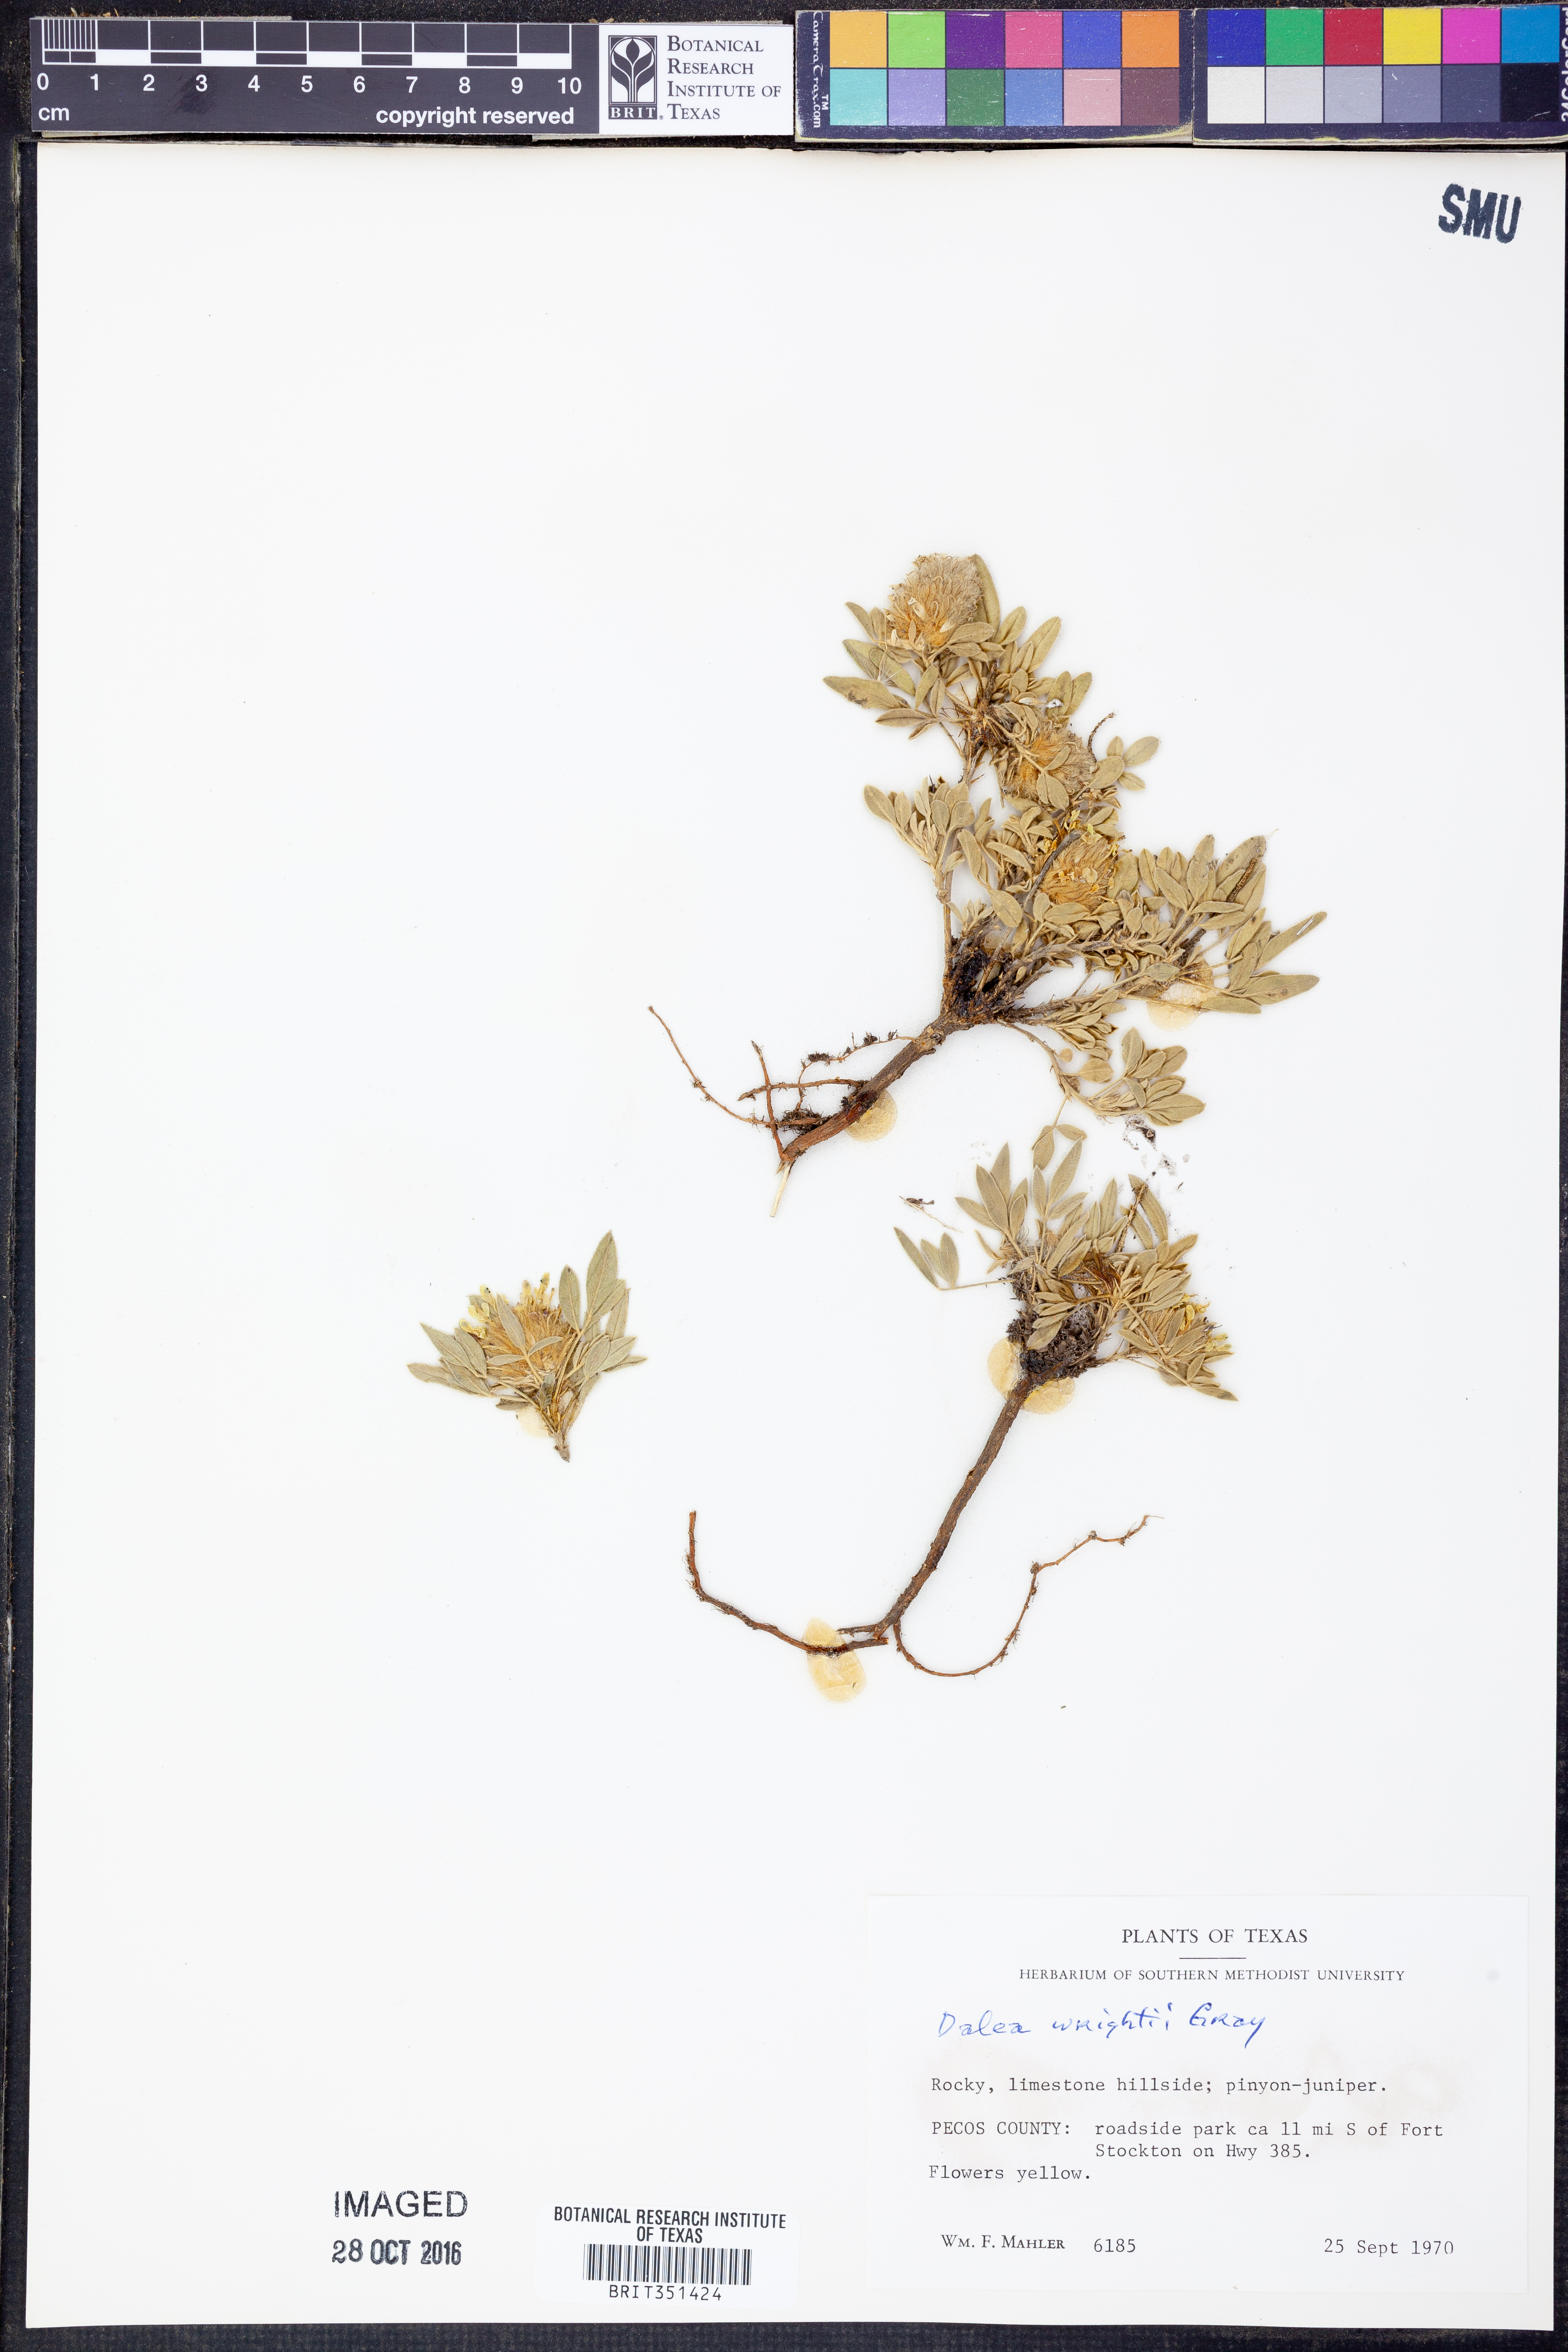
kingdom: Plantae
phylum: Tracheophyta
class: Magnoliopsida
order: Fabales
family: Fabaceae
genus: Dalea
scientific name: Dalea wrightii
